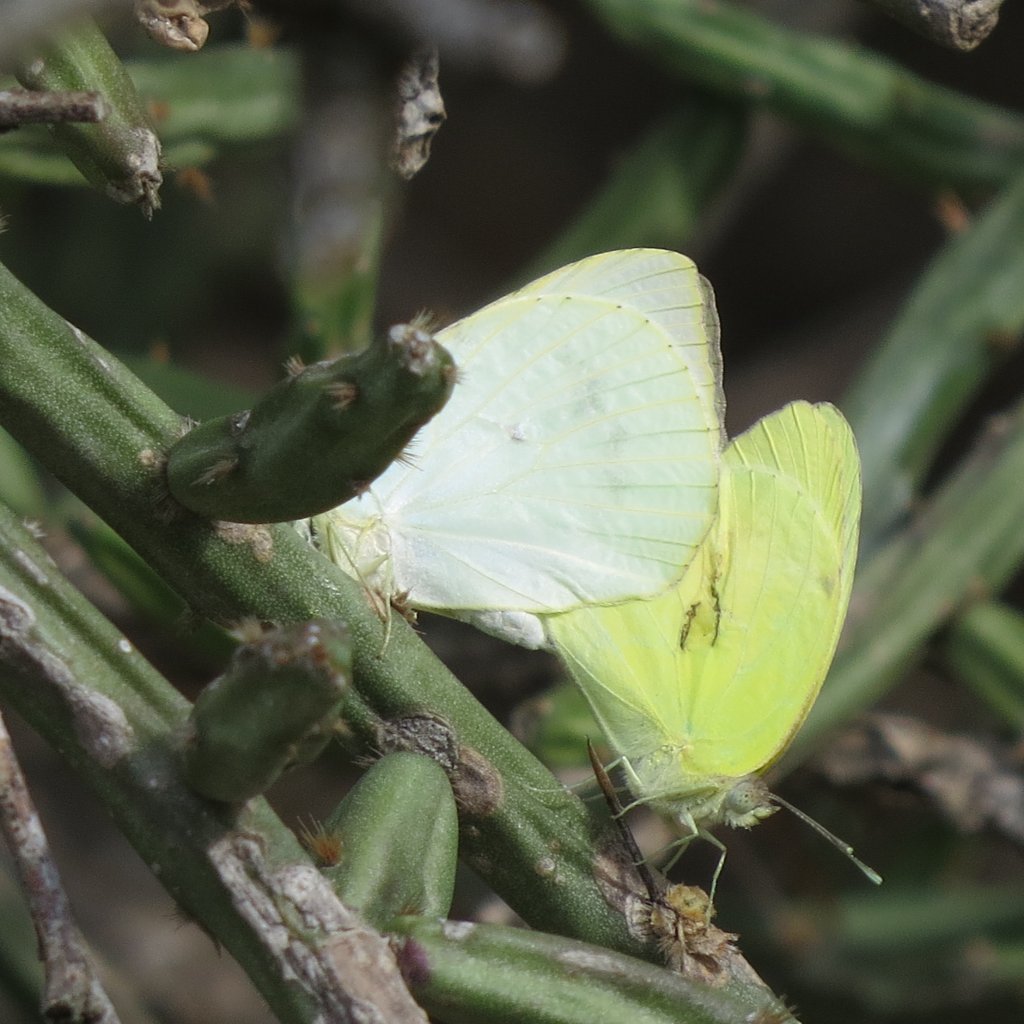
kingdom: Animalia
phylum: Arthropoda
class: Insecta
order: Lepidoptera
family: Pieridae
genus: Kricogonia
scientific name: Kricogonia lyside
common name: Lyside Sulphur
